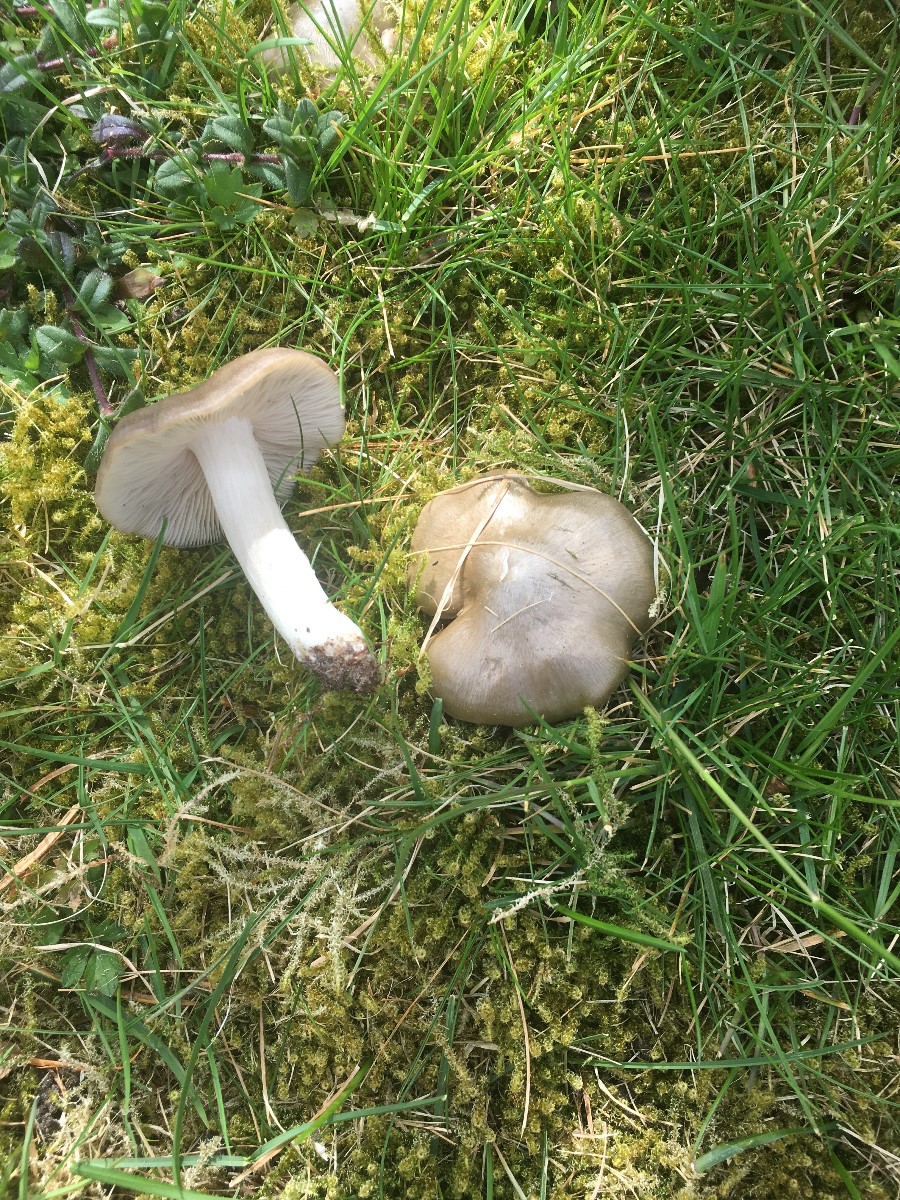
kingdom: Fungi
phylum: Basidiomycota
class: Agaricomycetes
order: Agaricales
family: Entolomataceae
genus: Entoloma
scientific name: Entoloma clypeatum
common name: flammet rødblad
